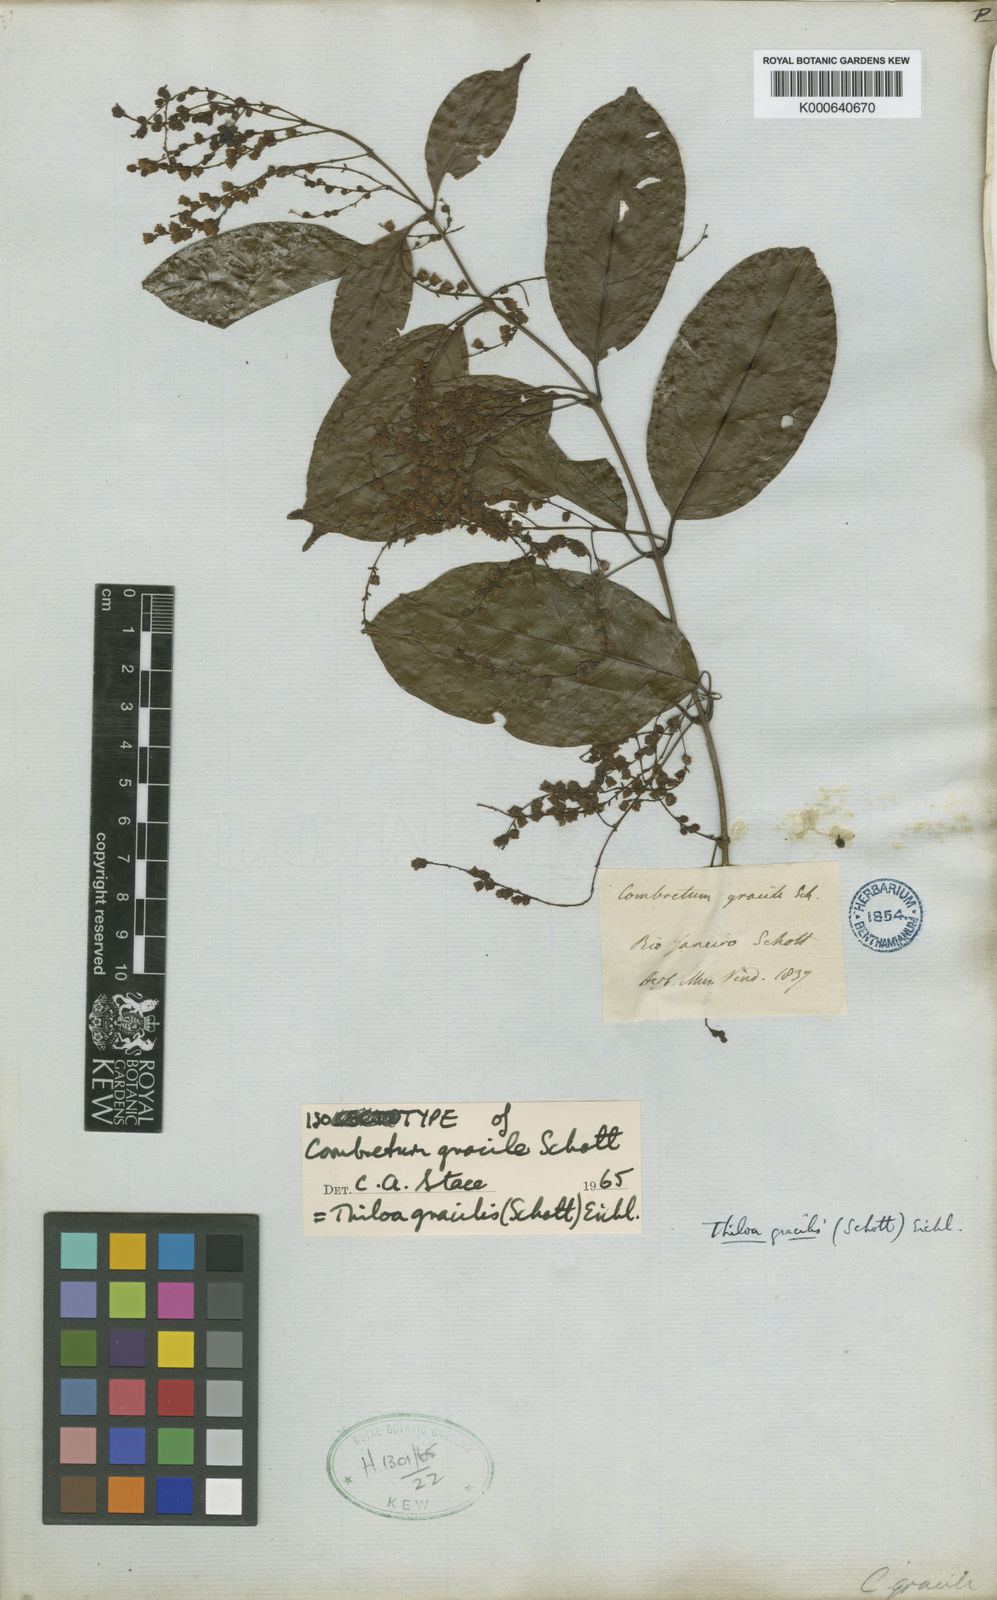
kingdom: Plantae
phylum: Tracheophyta
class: Magnoliopsida
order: Myrtales
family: Combretaceae
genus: Combretum
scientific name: Combretum gracile
